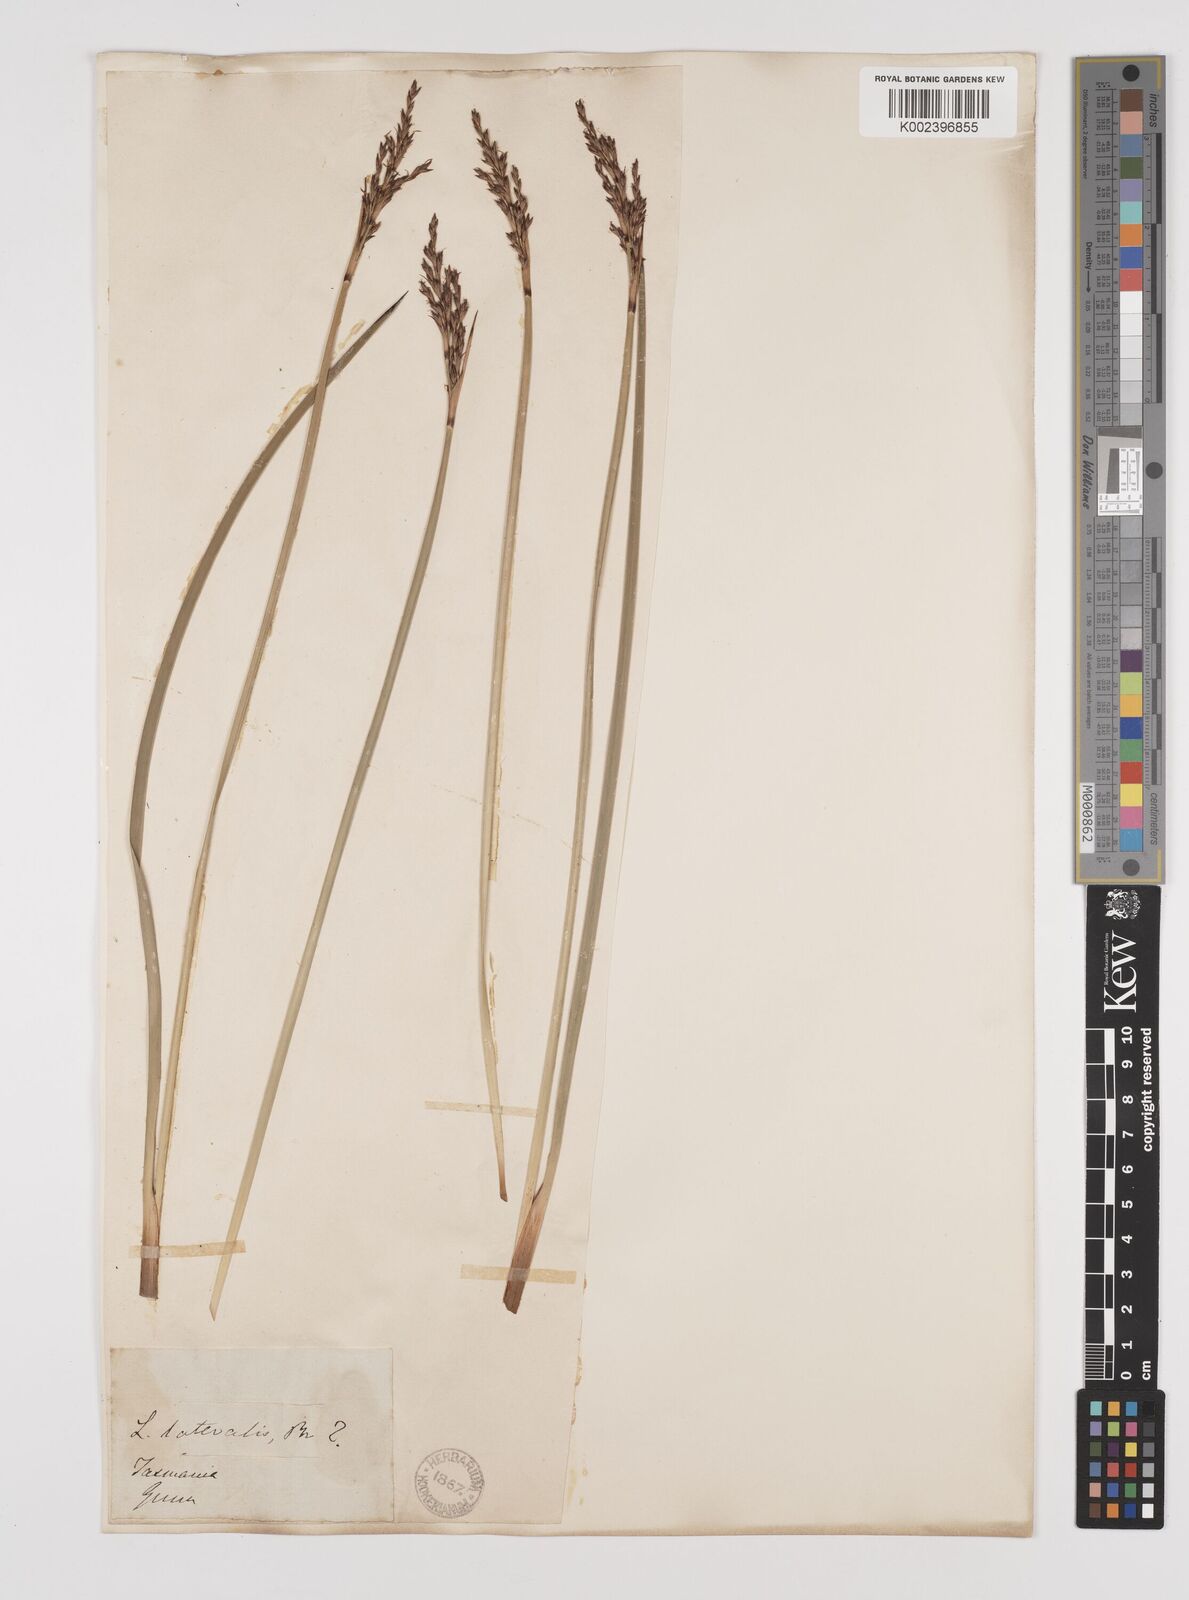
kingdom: Plantae
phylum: Tracheophyta
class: Liliopsida
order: Poales
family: Cyperaceae
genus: Lepidosperma
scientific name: Lepidosperma laterale
